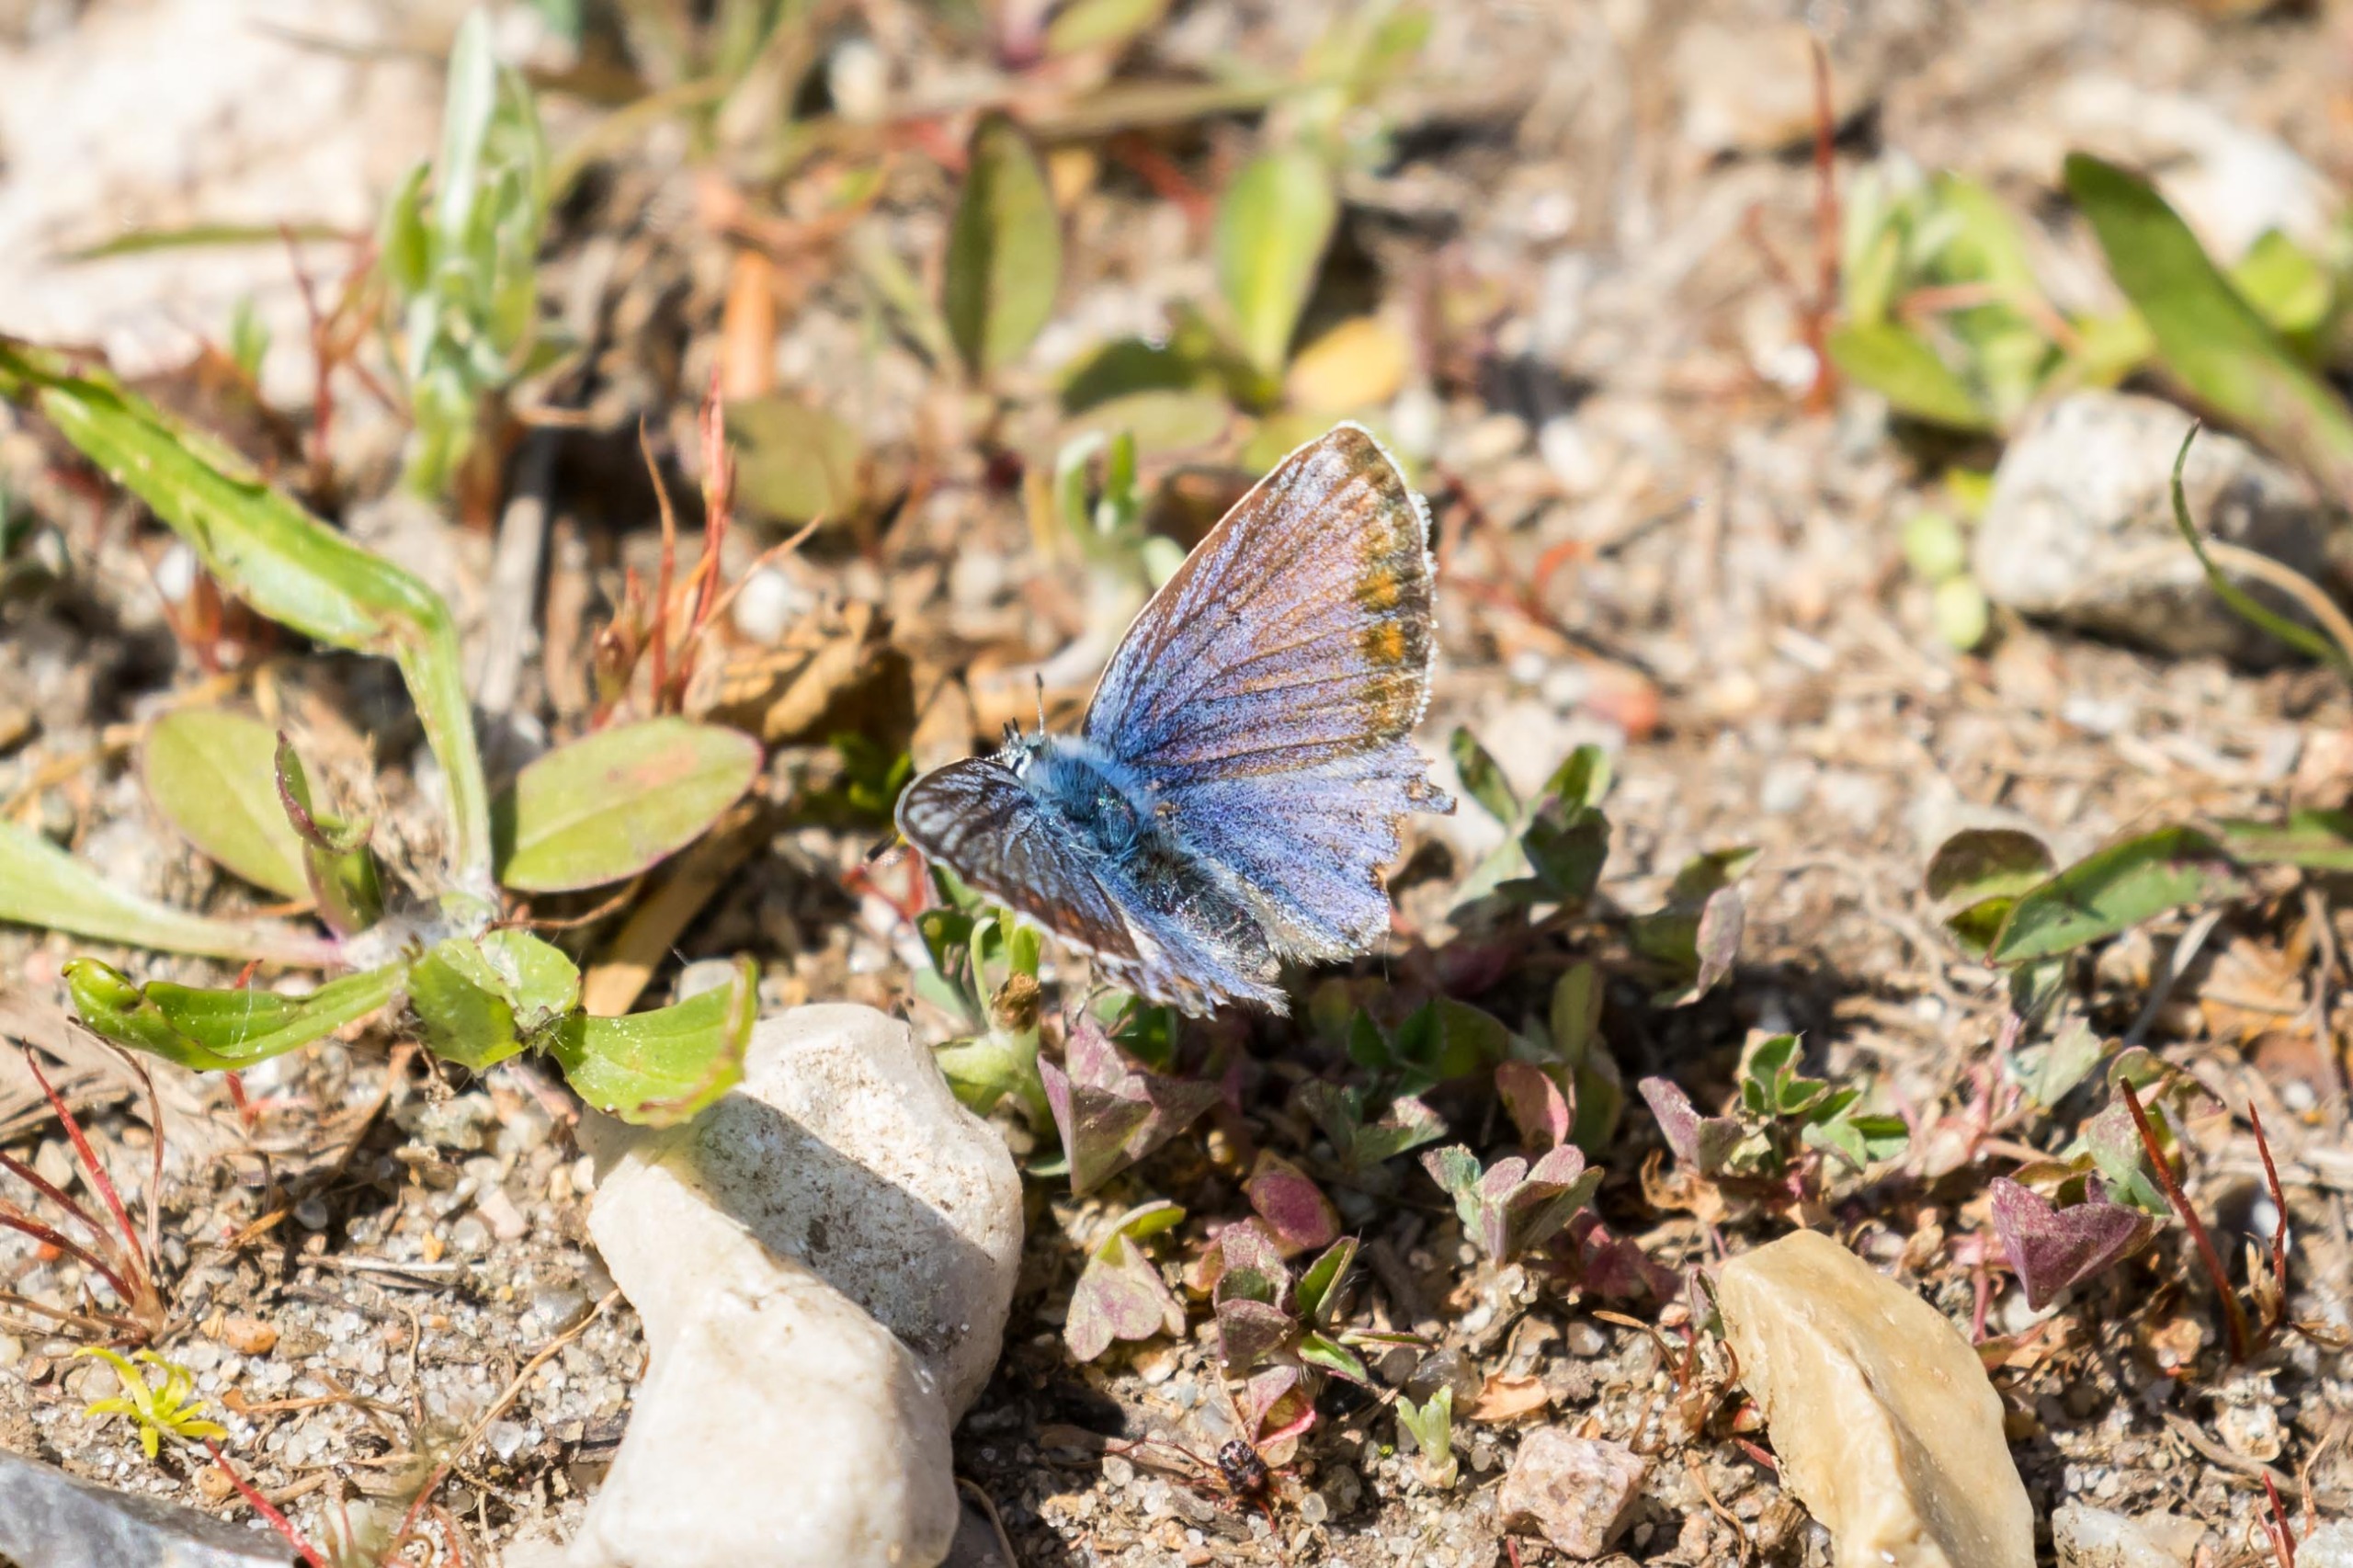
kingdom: Animalia
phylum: Arthropoda
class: Insecta
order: Lepidoptera
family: Lycaenidae
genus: Polyommatus
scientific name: Polyommatus icarus
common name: Almindelig blåfugl
